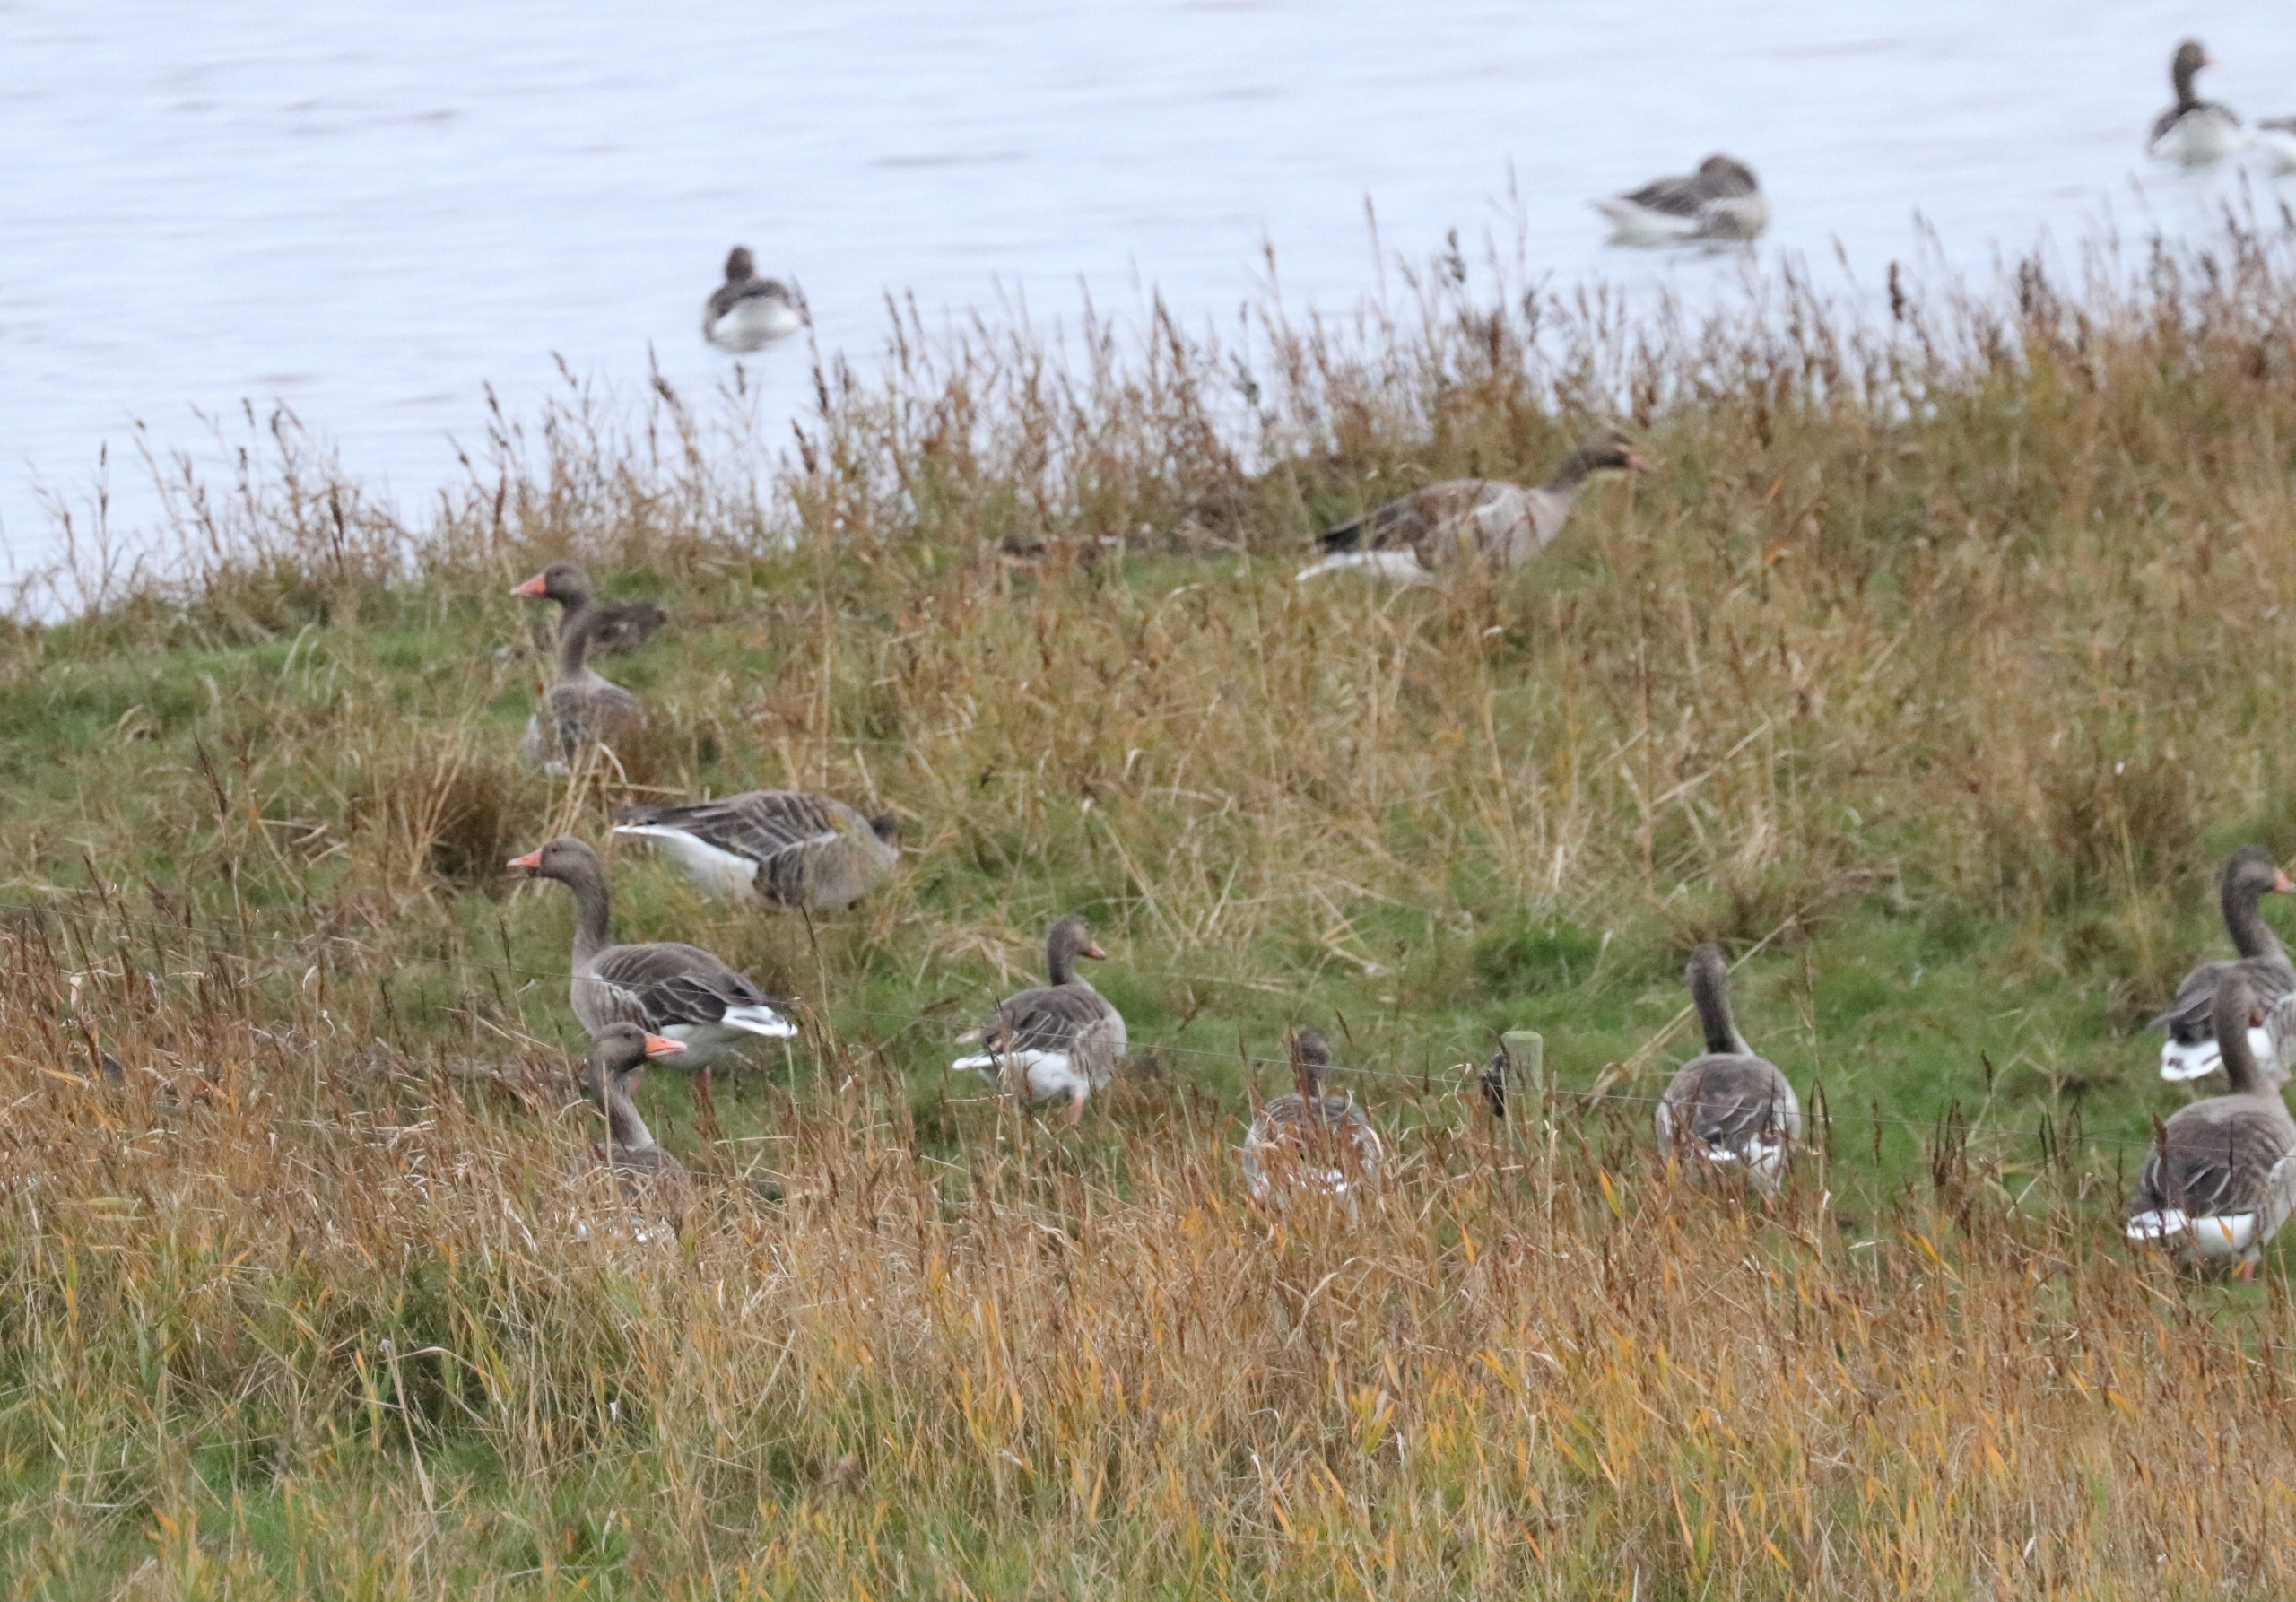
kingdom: Animalia
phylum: Chordata
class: Aves
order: Anseriformes
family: Anatidae
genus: Anser
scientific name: Anser anser
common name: Grågås
